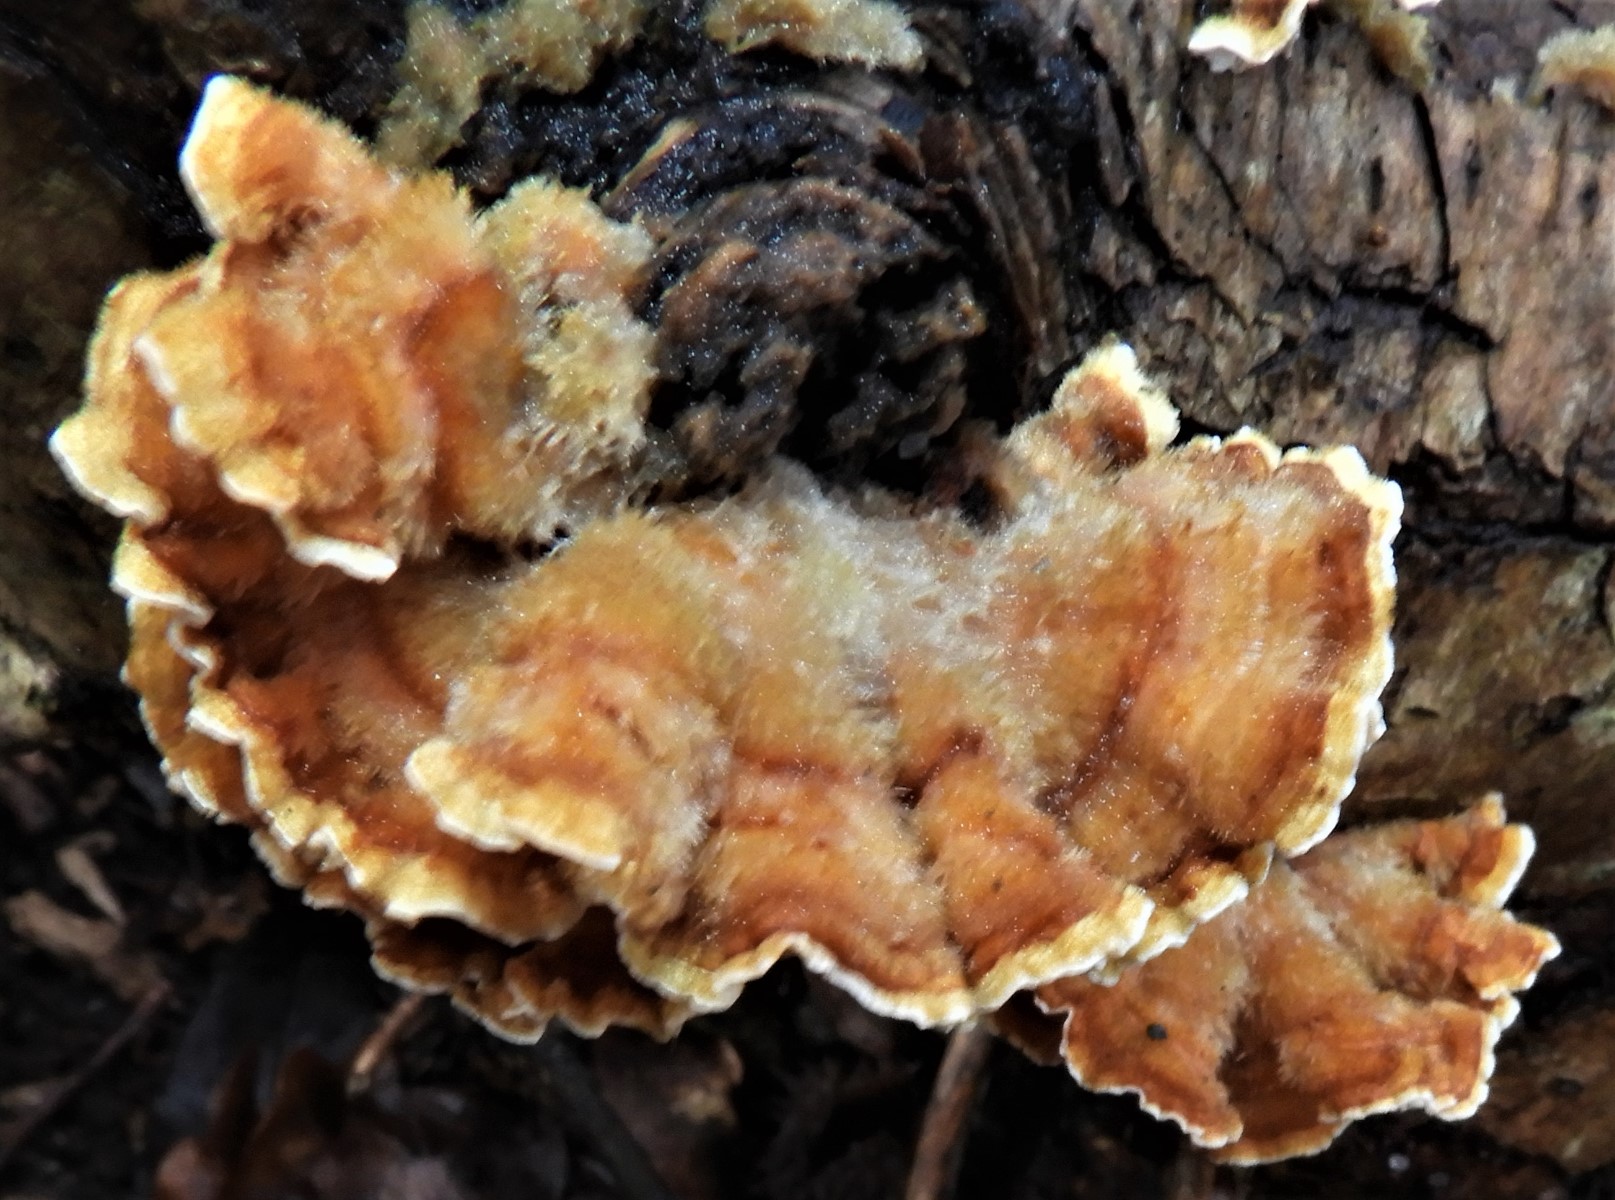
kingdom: Fungi
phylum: Basidiomycota
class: Agaricomycetes
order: Russulales
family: Stereaceae
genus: Stereum
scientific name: Stereum hirsutum
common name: håret lædersvamp
